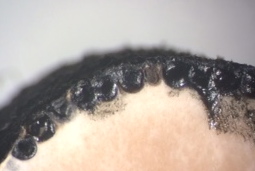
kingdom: Fungi
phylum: Ascomycota
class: Sordariomycetes
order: Xylariales
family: Xylariaceae
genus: Xylaria
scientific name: Xylaria longipes
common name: slank stødsvamp
